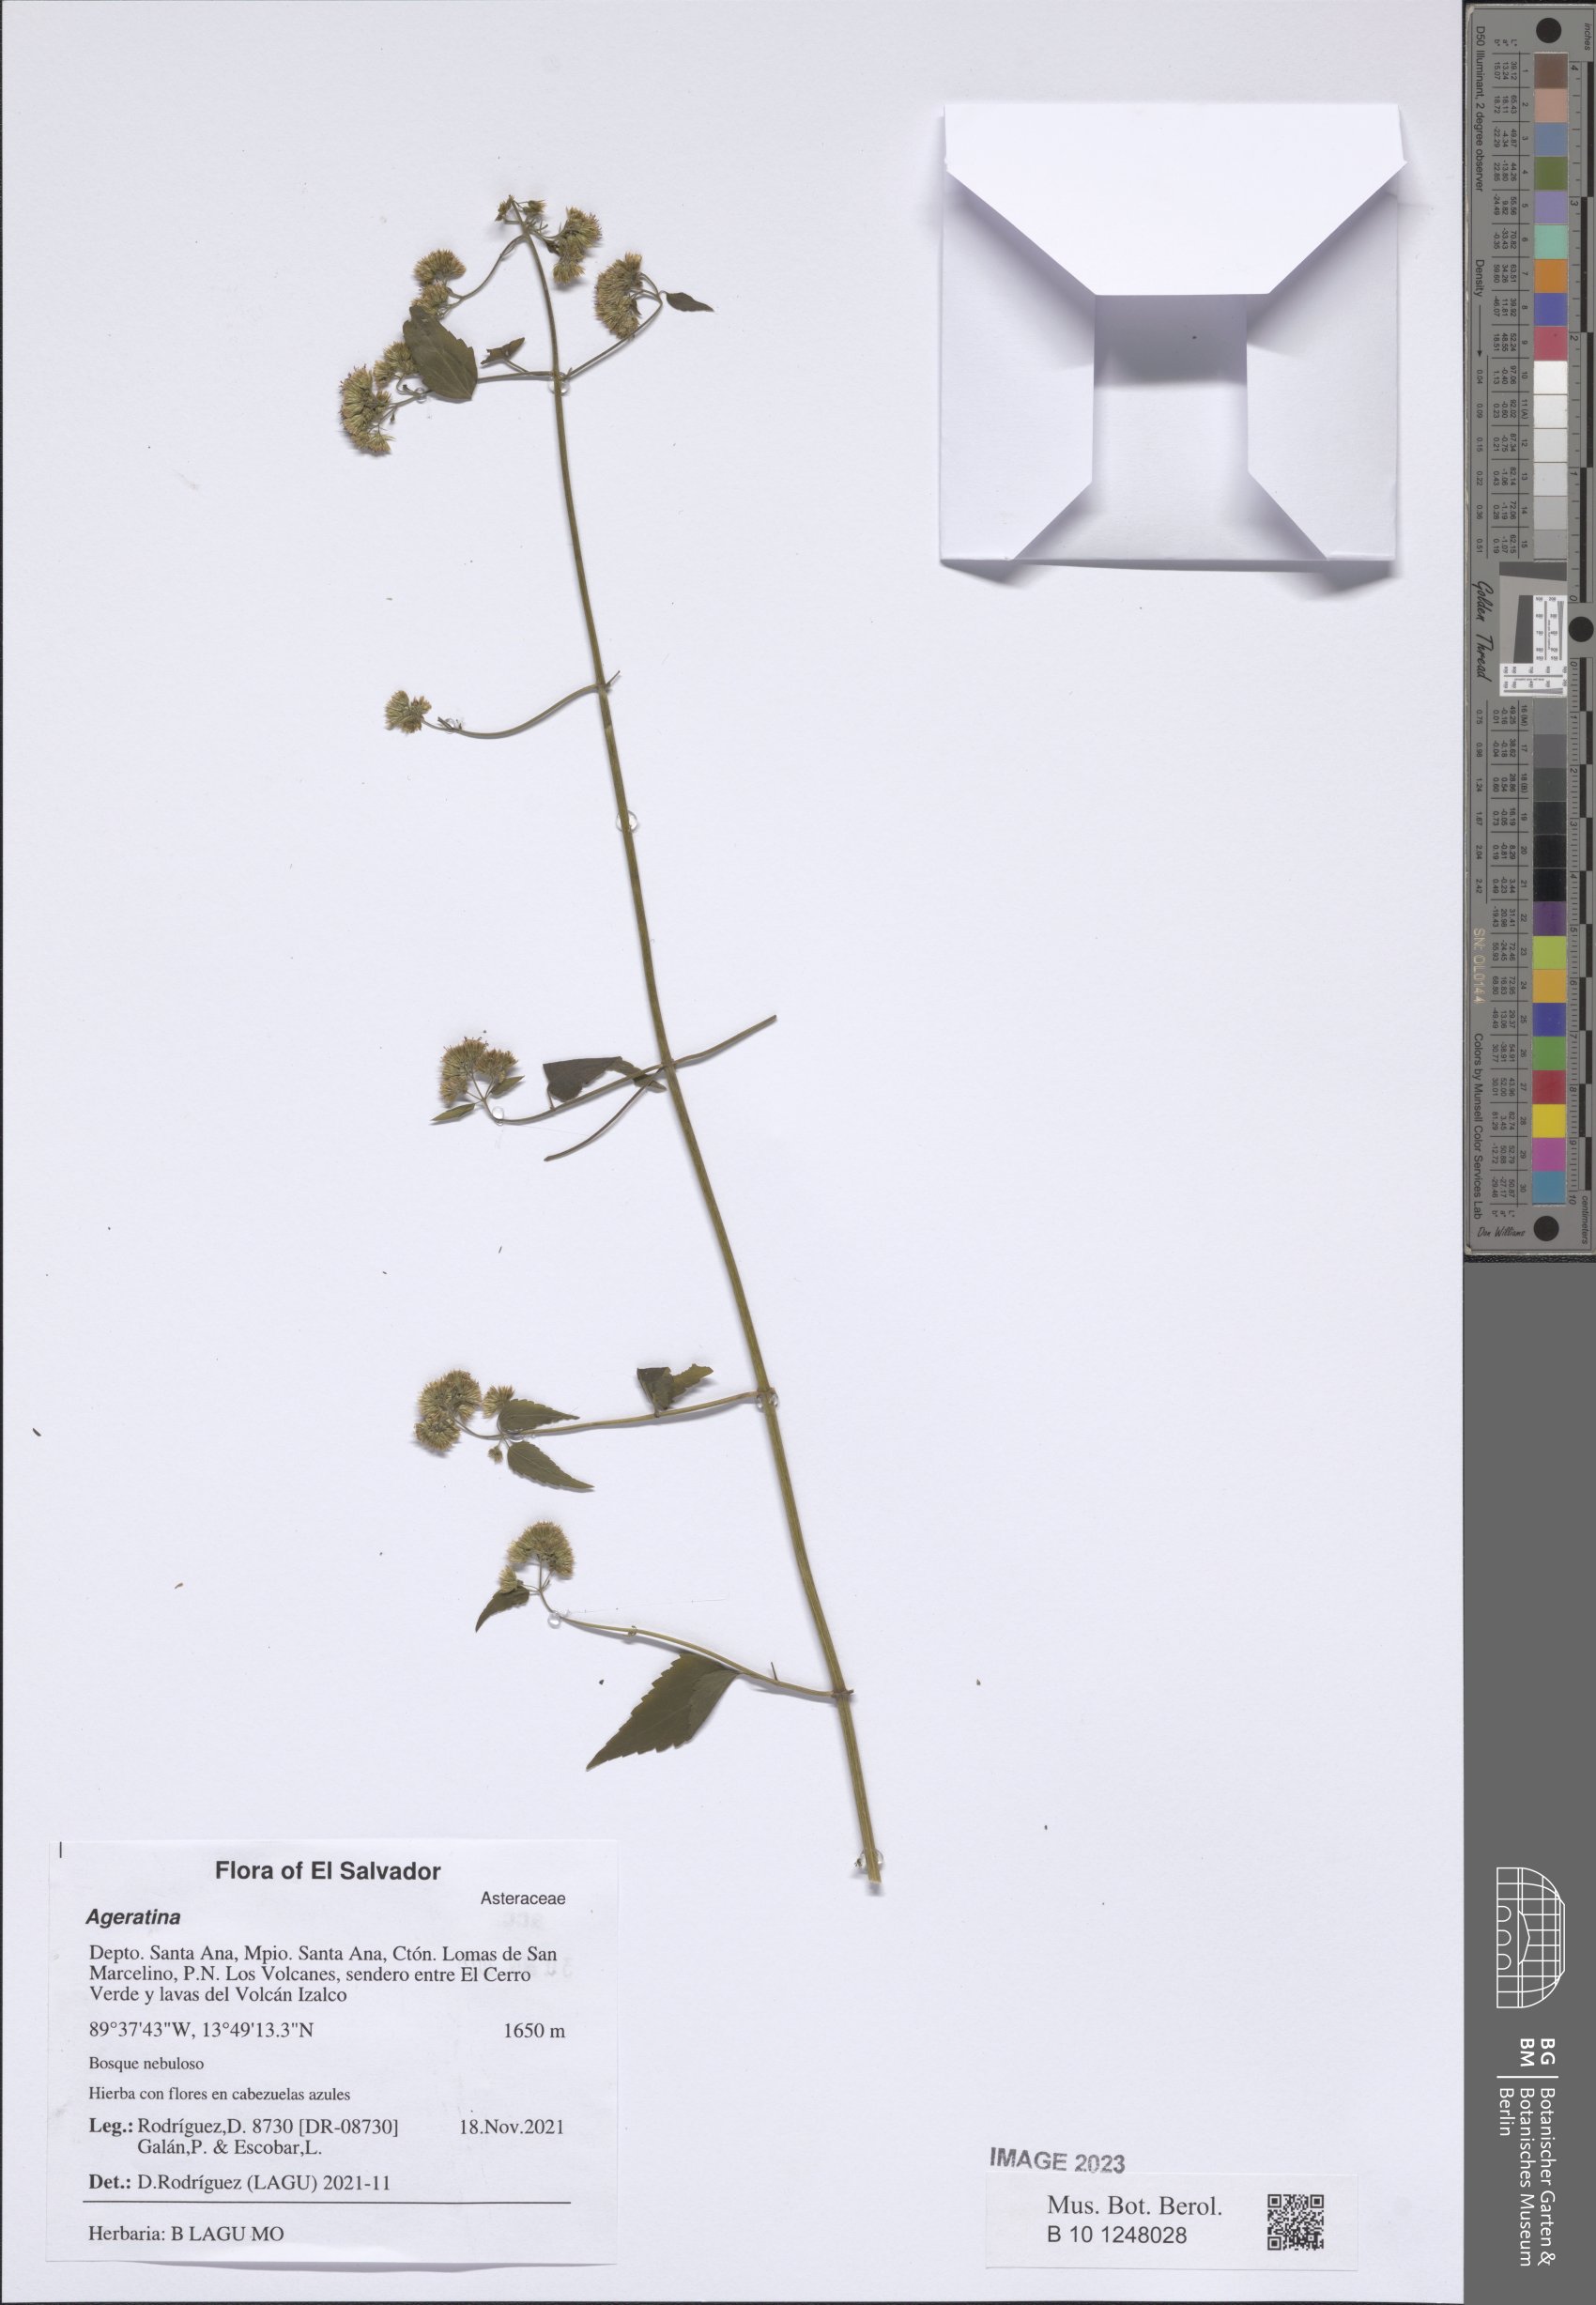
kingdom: Plantae
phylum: Tracheophyta
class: Magnoliopsida
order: Asterales
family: Asteraceae
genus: Ageratina
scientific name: Ageratina
